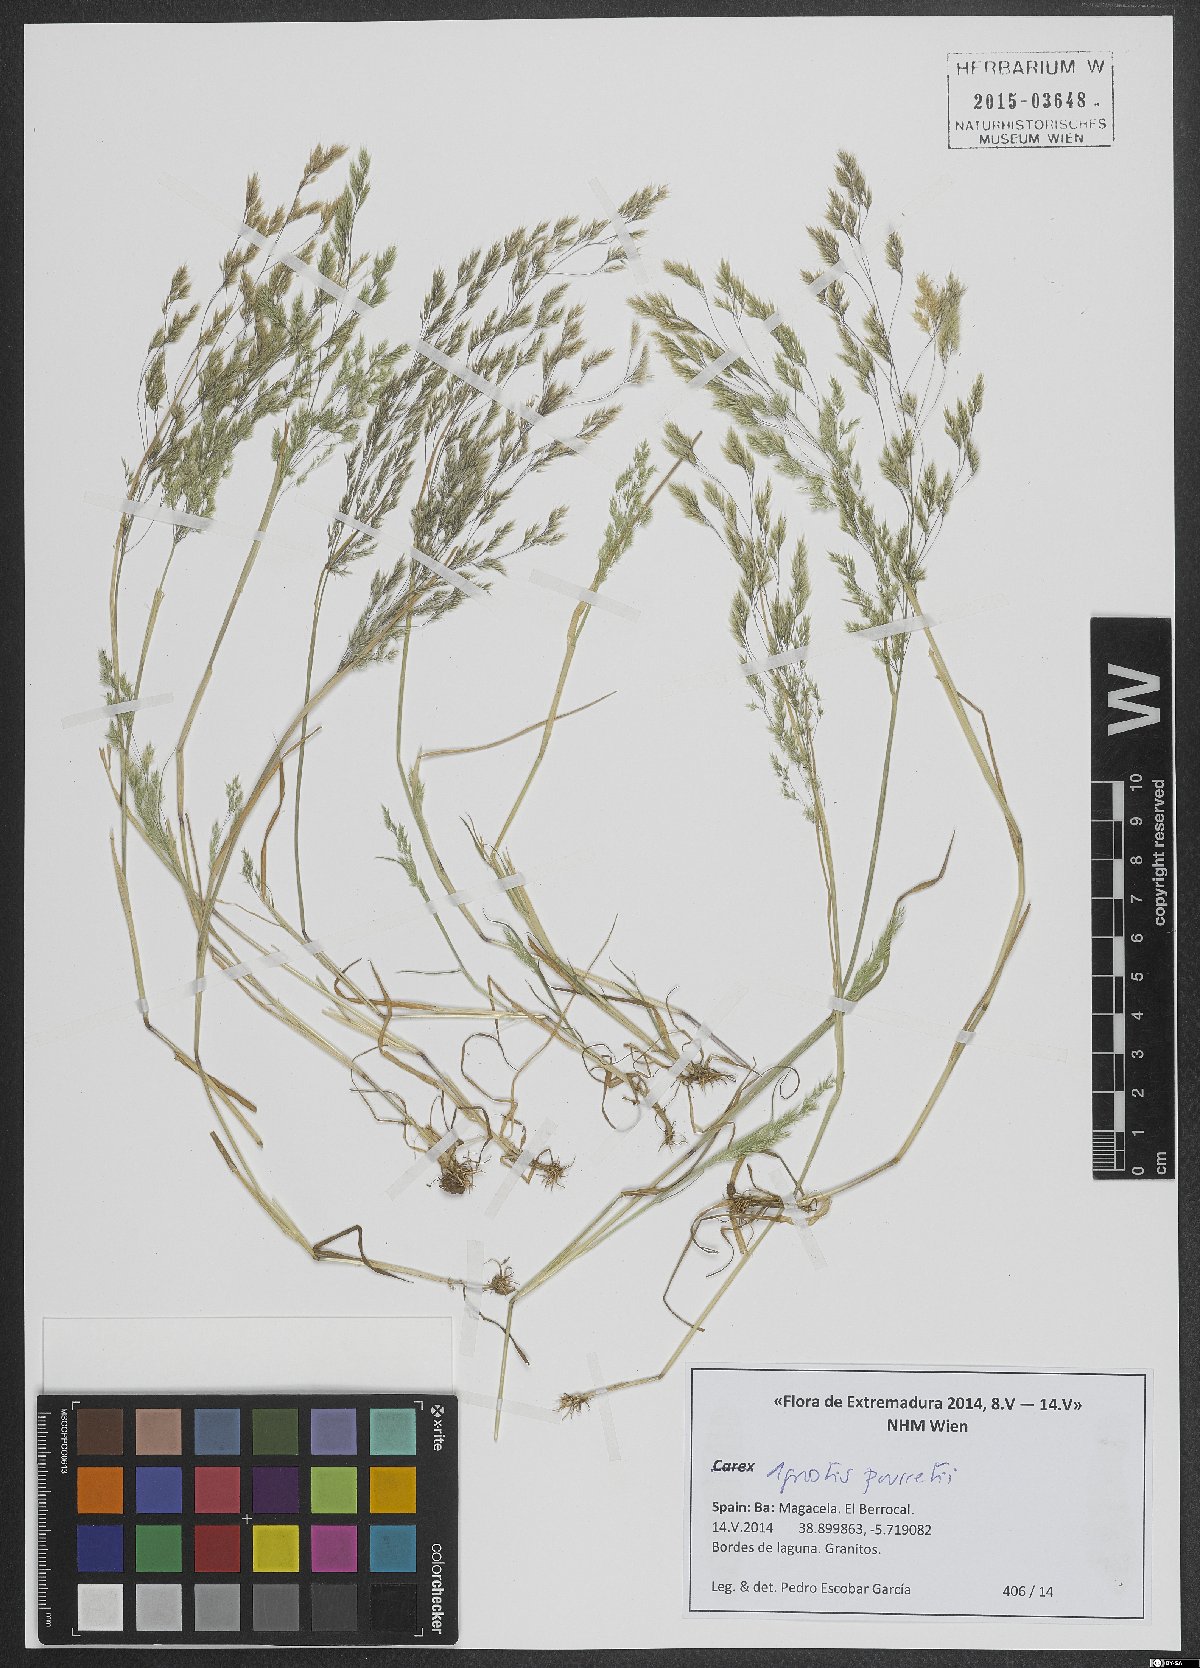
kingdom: Plantae
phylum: Tracheophyta
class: Liliopsida
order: Poales
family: Poaceae
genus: Agrostis
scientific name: Agrostis pourretii
